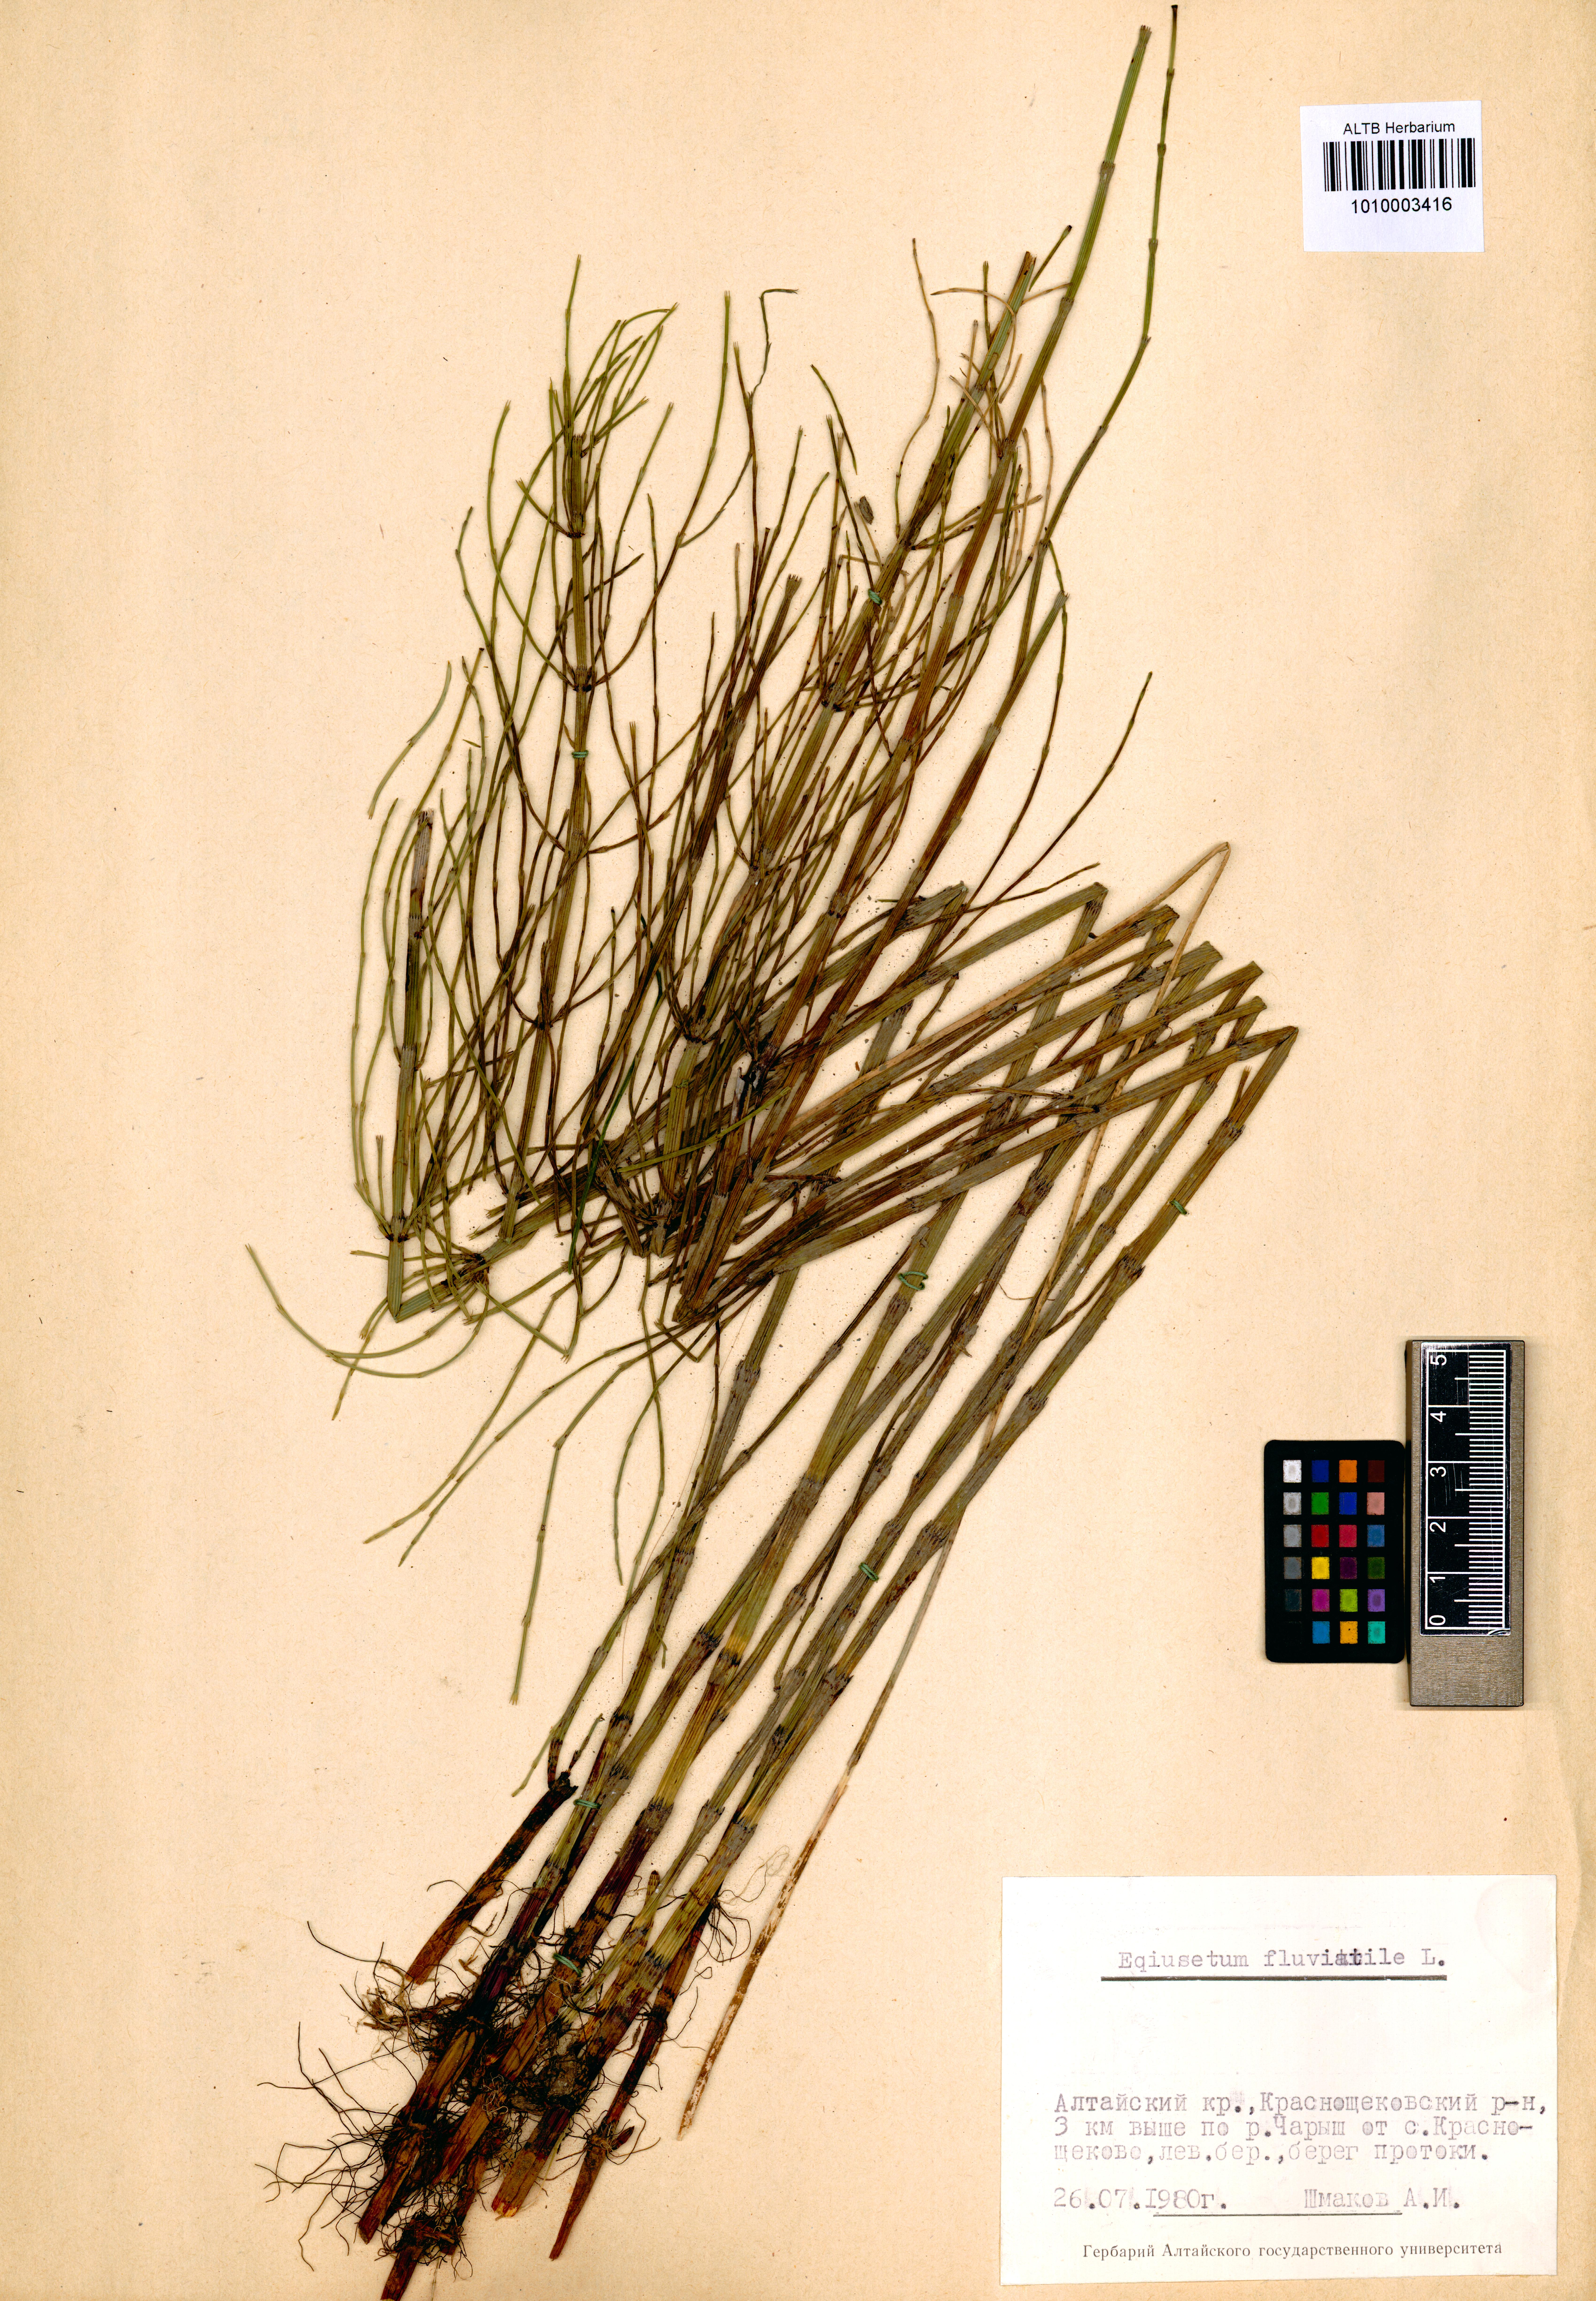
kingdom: Plantae
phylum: Tracheophyta
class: Polypodiopsida
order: Equisetales
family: Equisetaceae
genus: Equisetum
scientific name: Equisetum fluviatile
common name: Water horsetail
